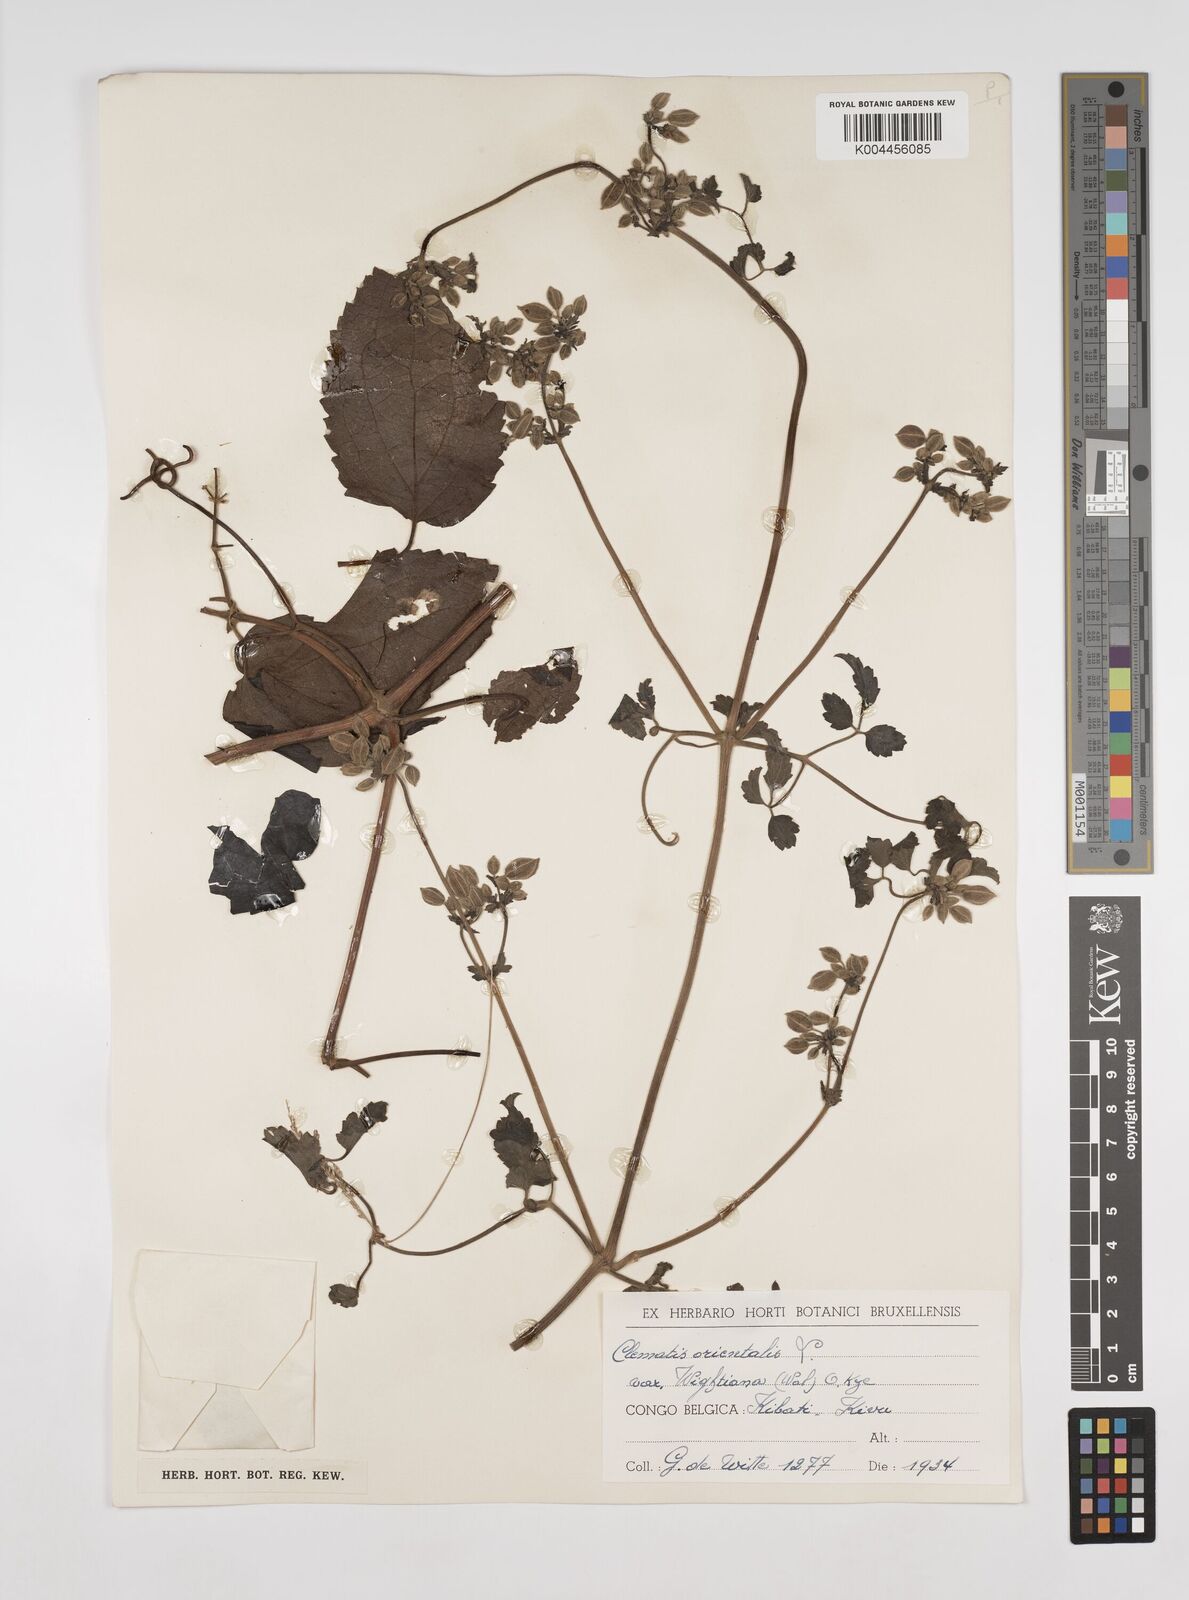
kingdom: Plantae
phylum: Tracheophyta
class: Magnoliopsida
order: Ranunculales
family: Ranunculaceae
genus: Clematis
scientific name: Clematis orientalis
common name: Oriental virgin's-bower
